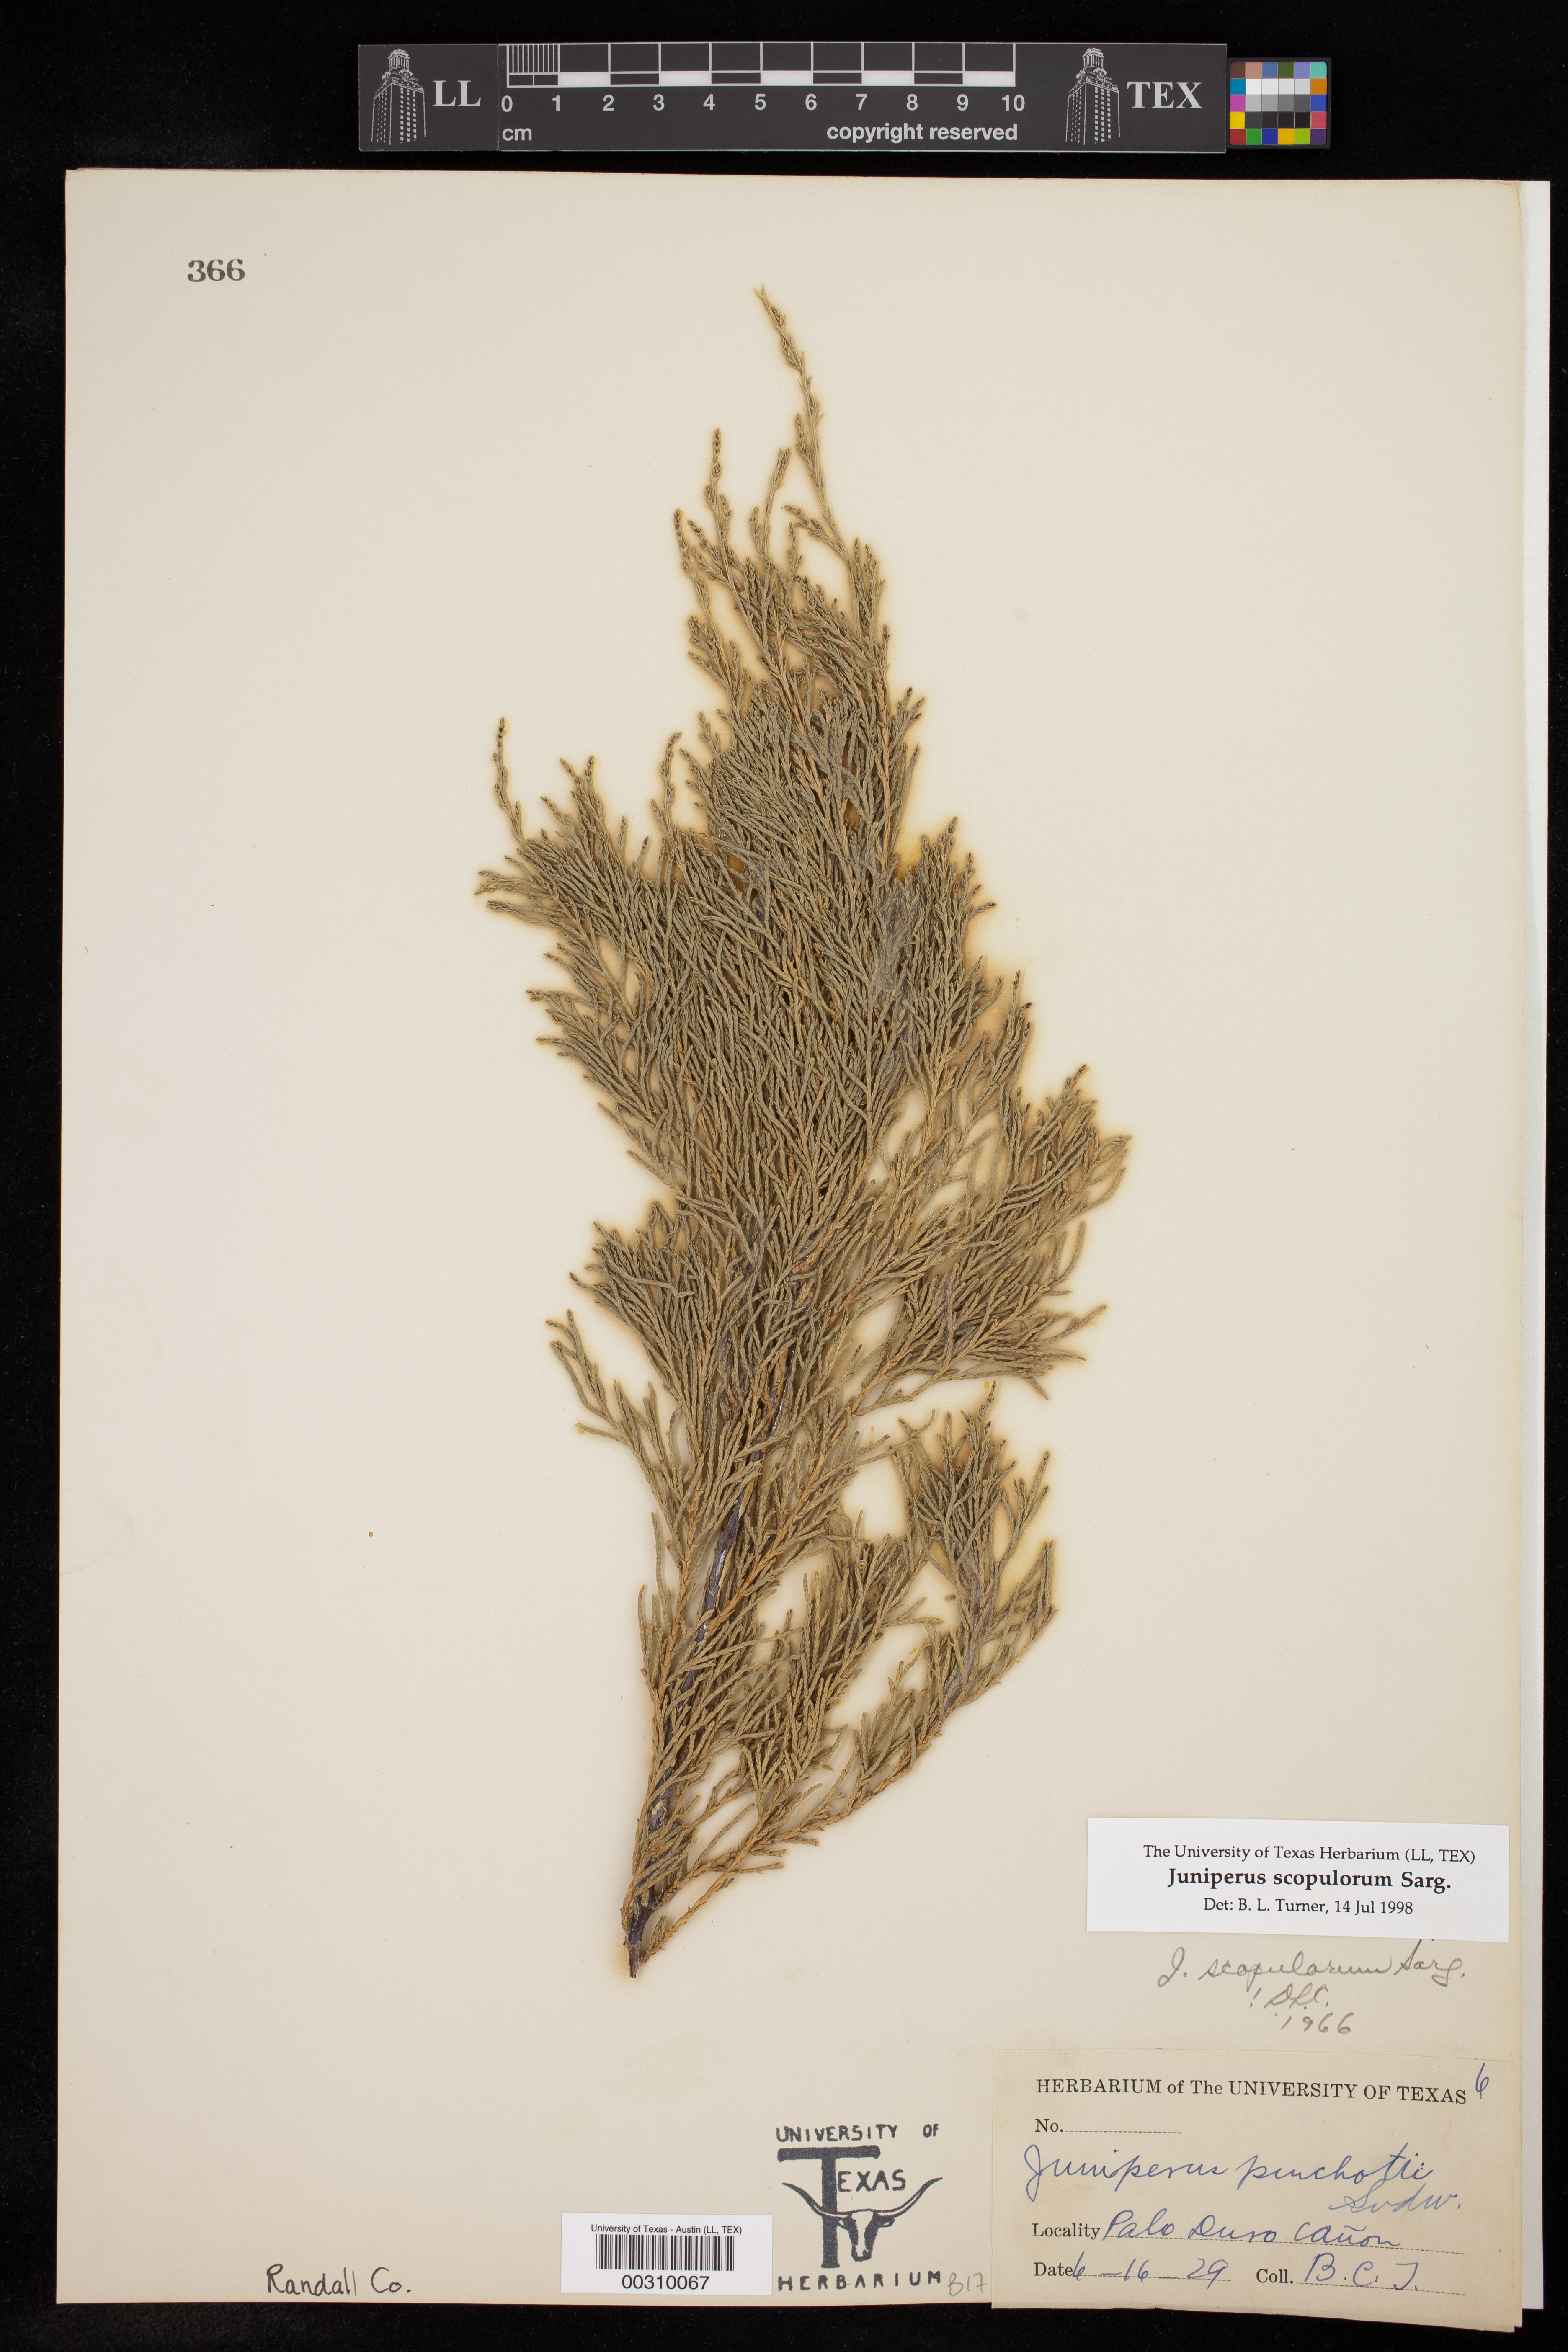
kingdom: Plantae
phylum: Tracheophyta
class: Pinopsida
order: Pinales
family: Cupressaceae
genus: Juniperus
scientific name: Juniperus scopulorum
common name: Rocky mountain juniper
